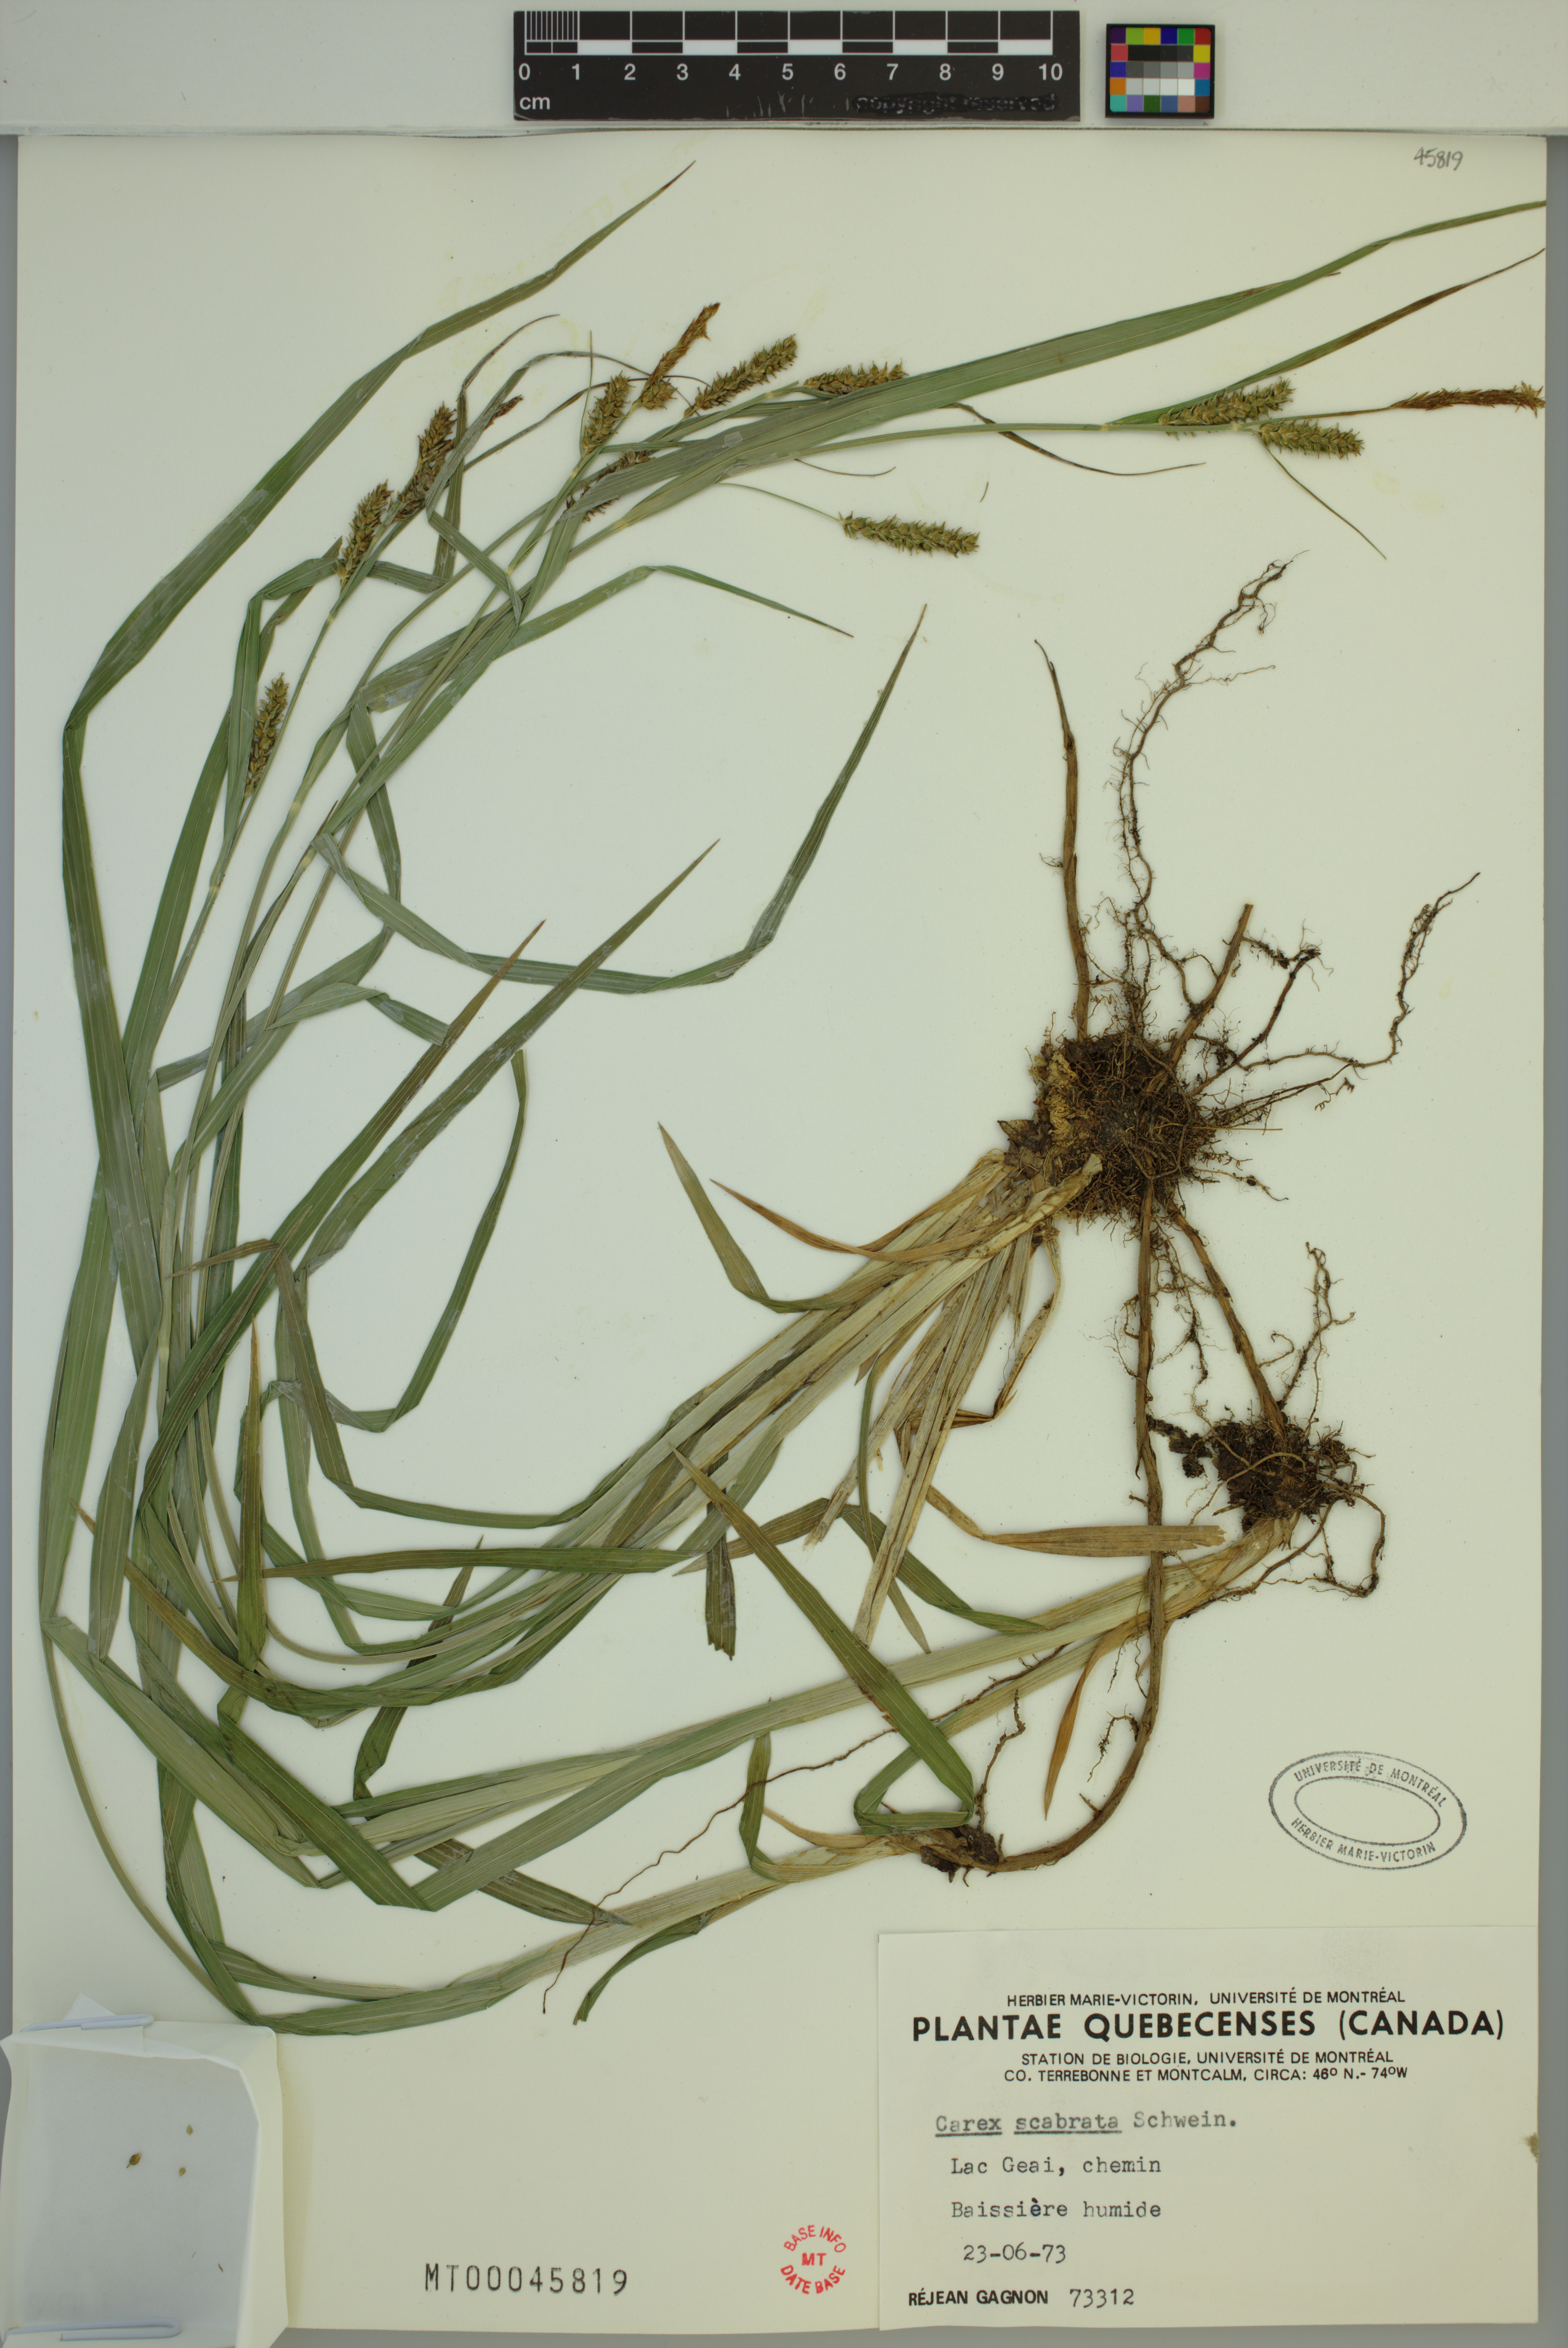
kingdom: Plantae
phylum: Tracheophyta
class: Liliopsida
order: Poales
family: Cyperaceae
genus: Carex
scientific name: Carex scabrata
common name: Eastern rough sedge
